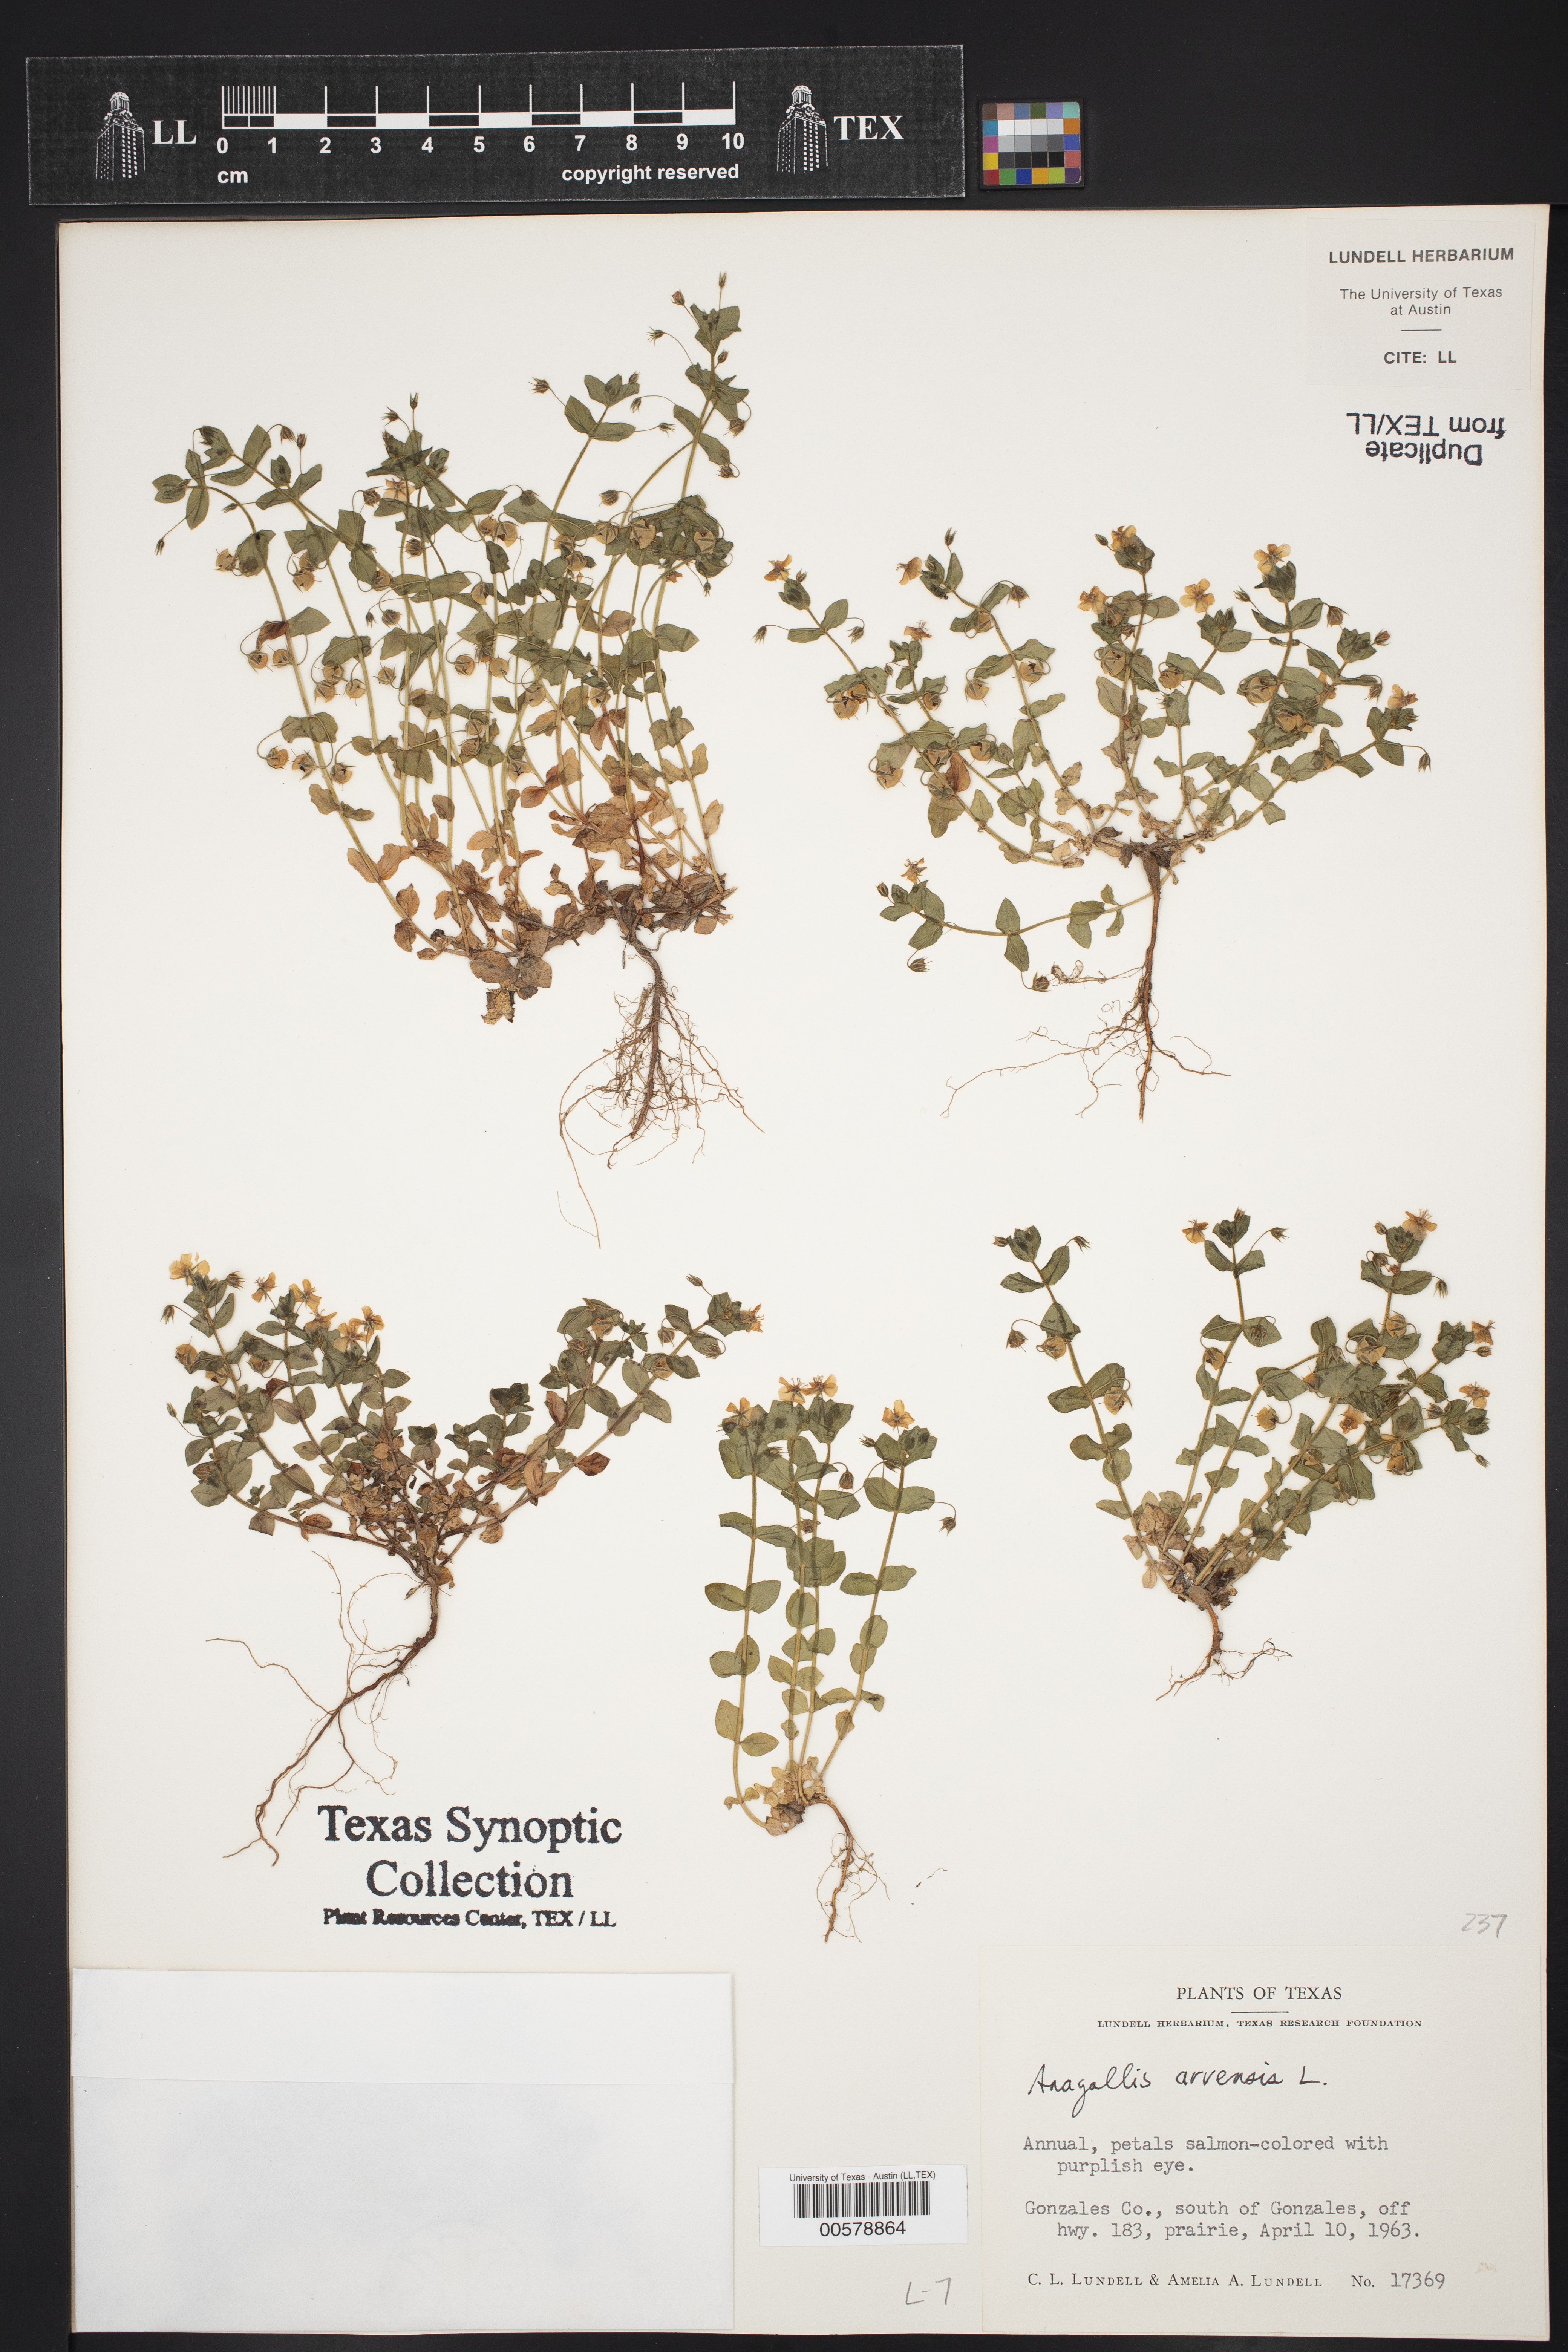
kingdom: Plantae
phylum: Tracheophyta
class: Magnoliopsida
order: Ericales
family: Primulaceae
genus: Lysimachia
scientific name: Lysimachia arvensis
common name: Scarlet pimpernel
